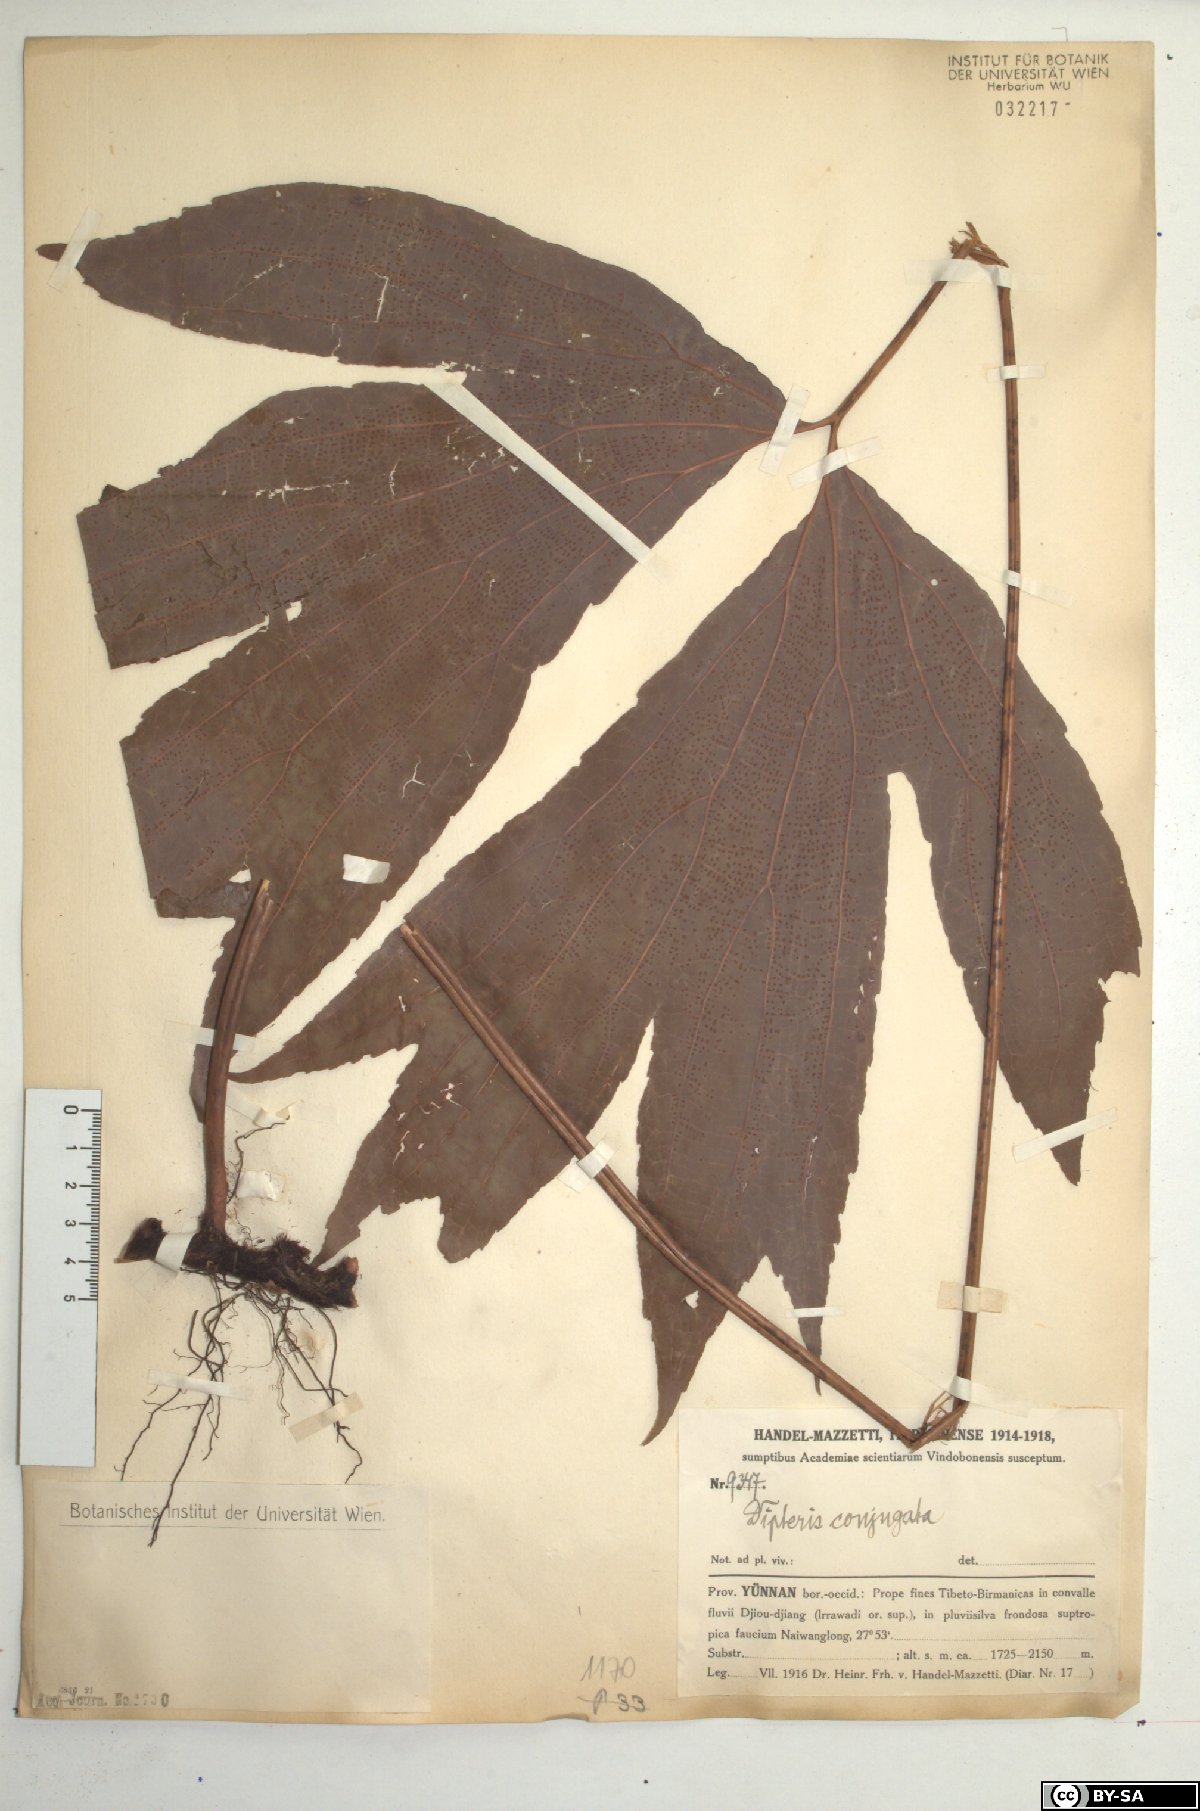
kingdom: Plantae
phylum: Tracheophyta
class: Polypodiopsida
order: Gleicheniales
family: Dipteridaceae
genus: Dipteris
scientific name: Dipteris conjugata
